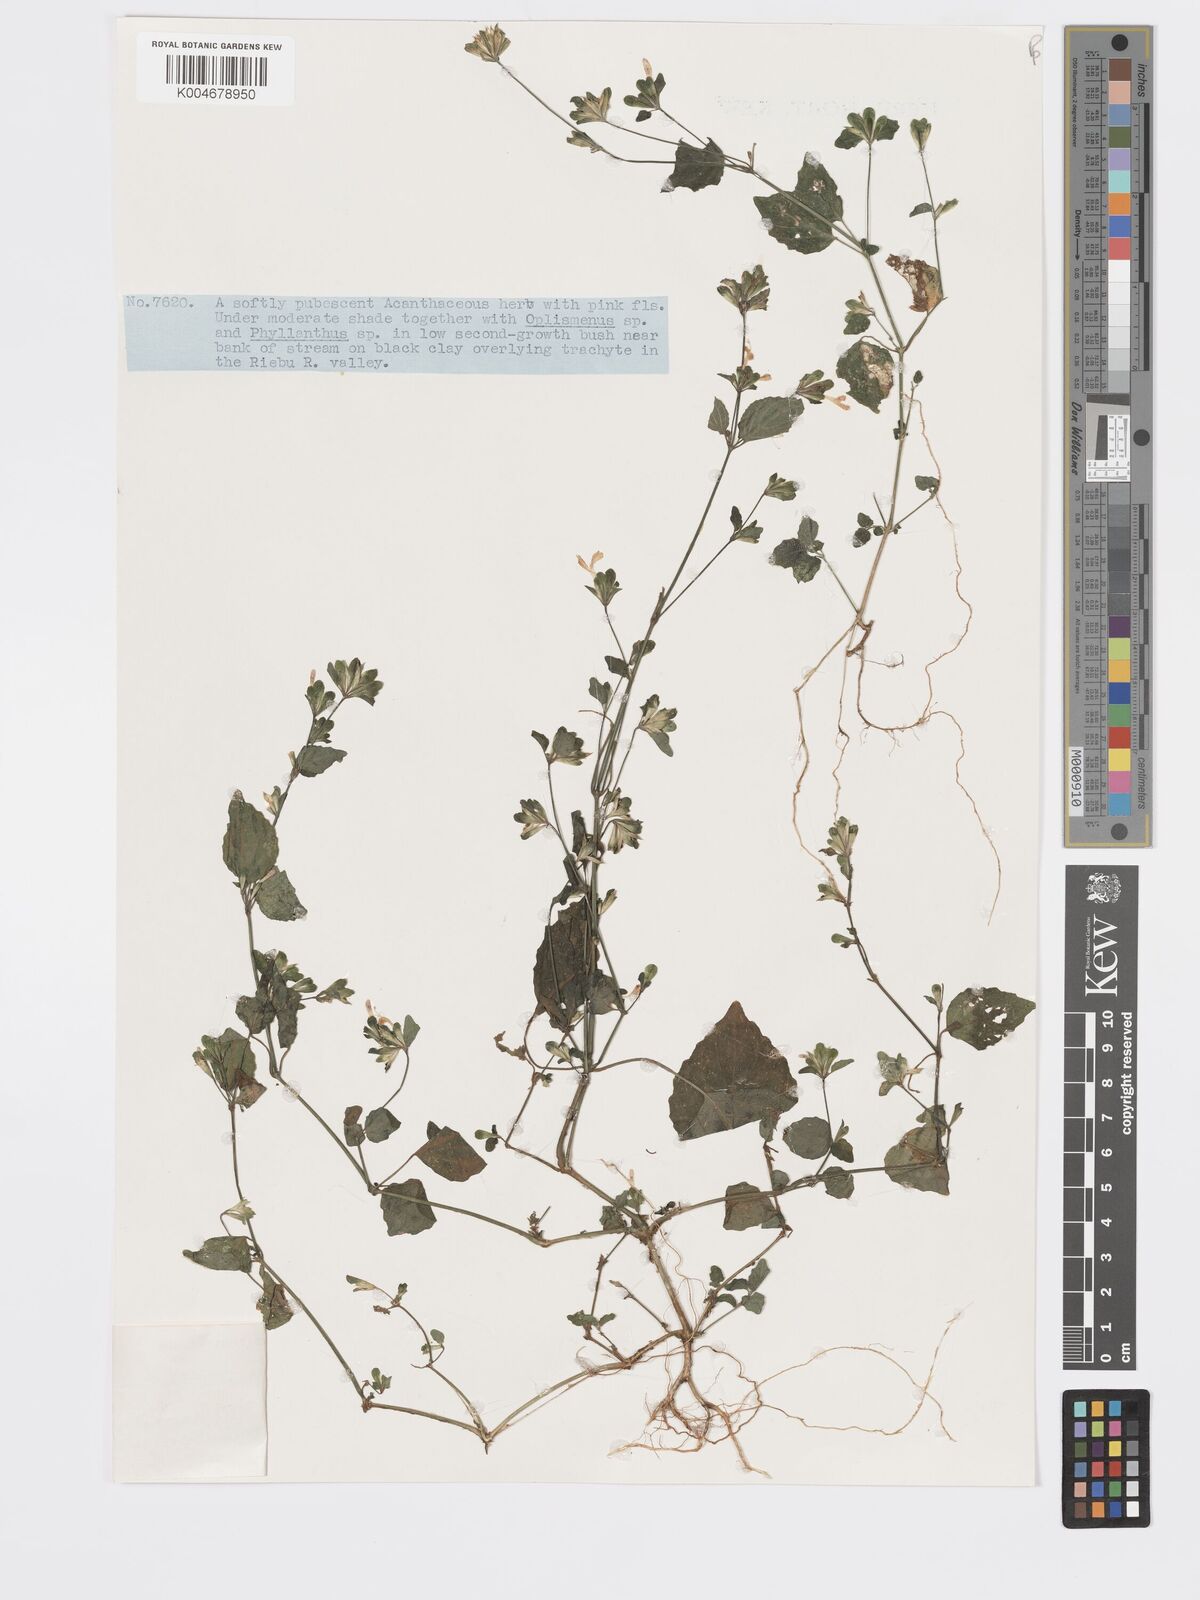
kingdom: Plantae
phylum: Tracheophyta
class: Magnoliopsida
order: Lamiales
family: Acanthaceae
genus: Hypoestes
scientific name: Hypoestes triflora
